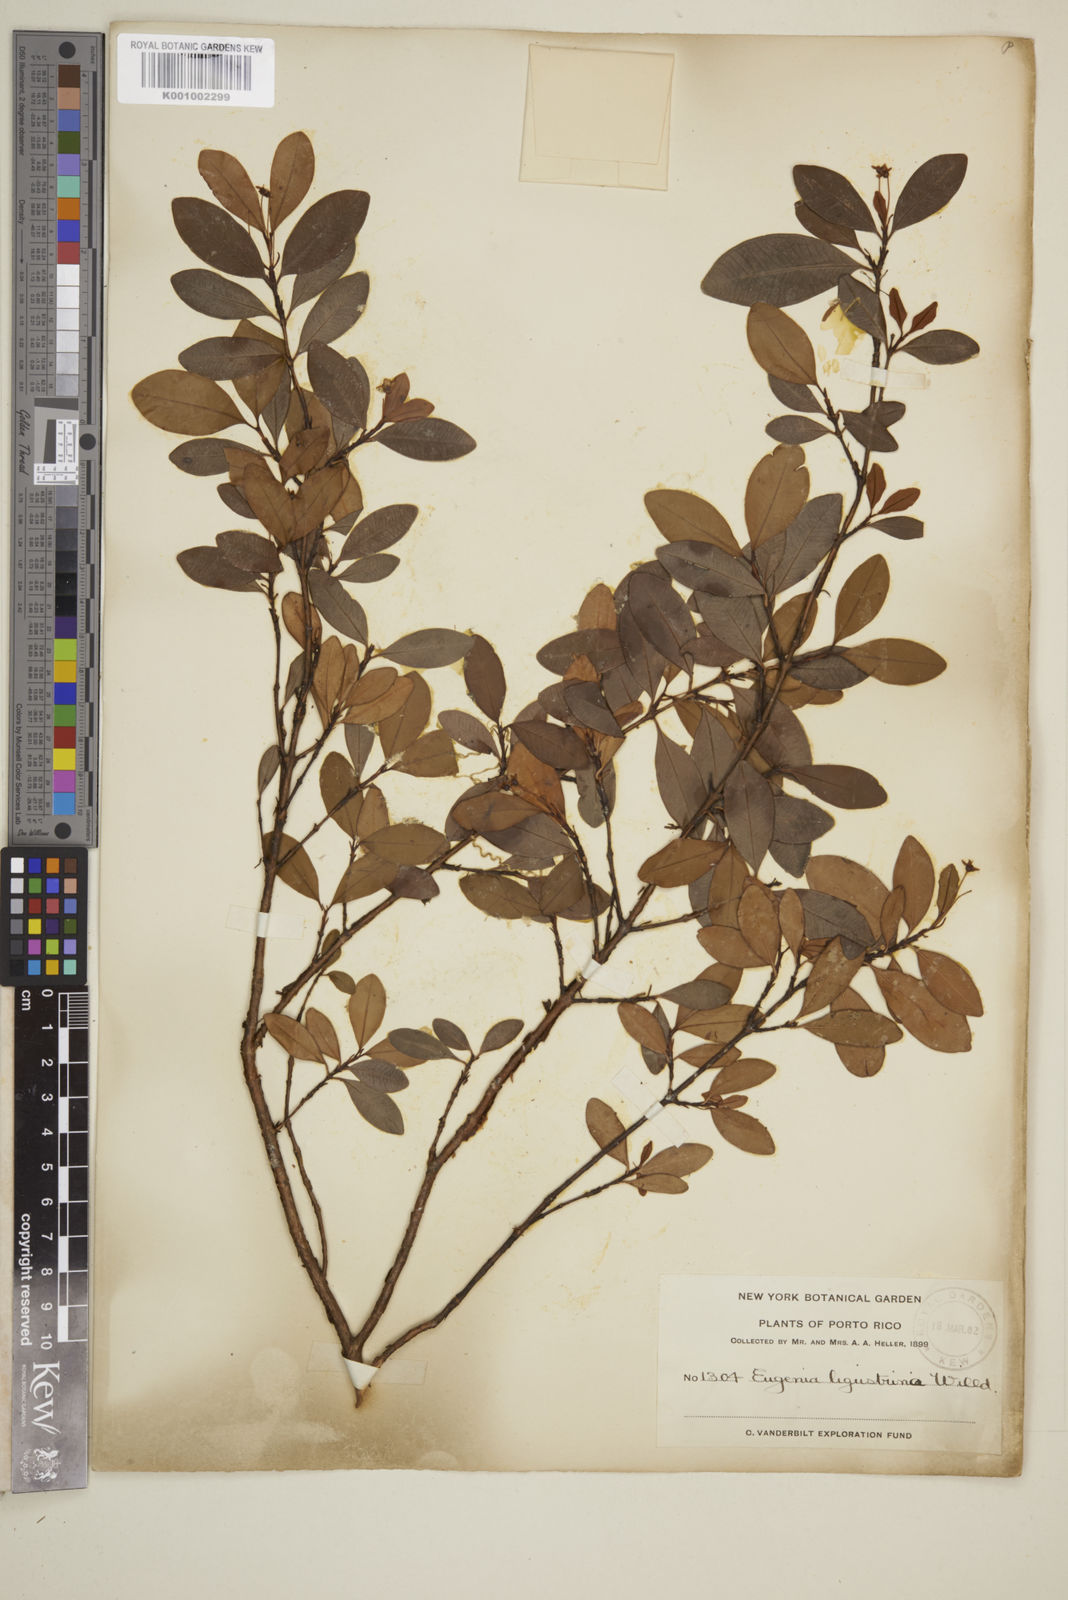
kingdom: Plantae
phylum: Tracheophyta
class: Magnoliopsida
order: Myrtales
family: Myrtaceae
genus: Eugenia
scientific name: Eugenia ligustrina
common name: Privet stopper
